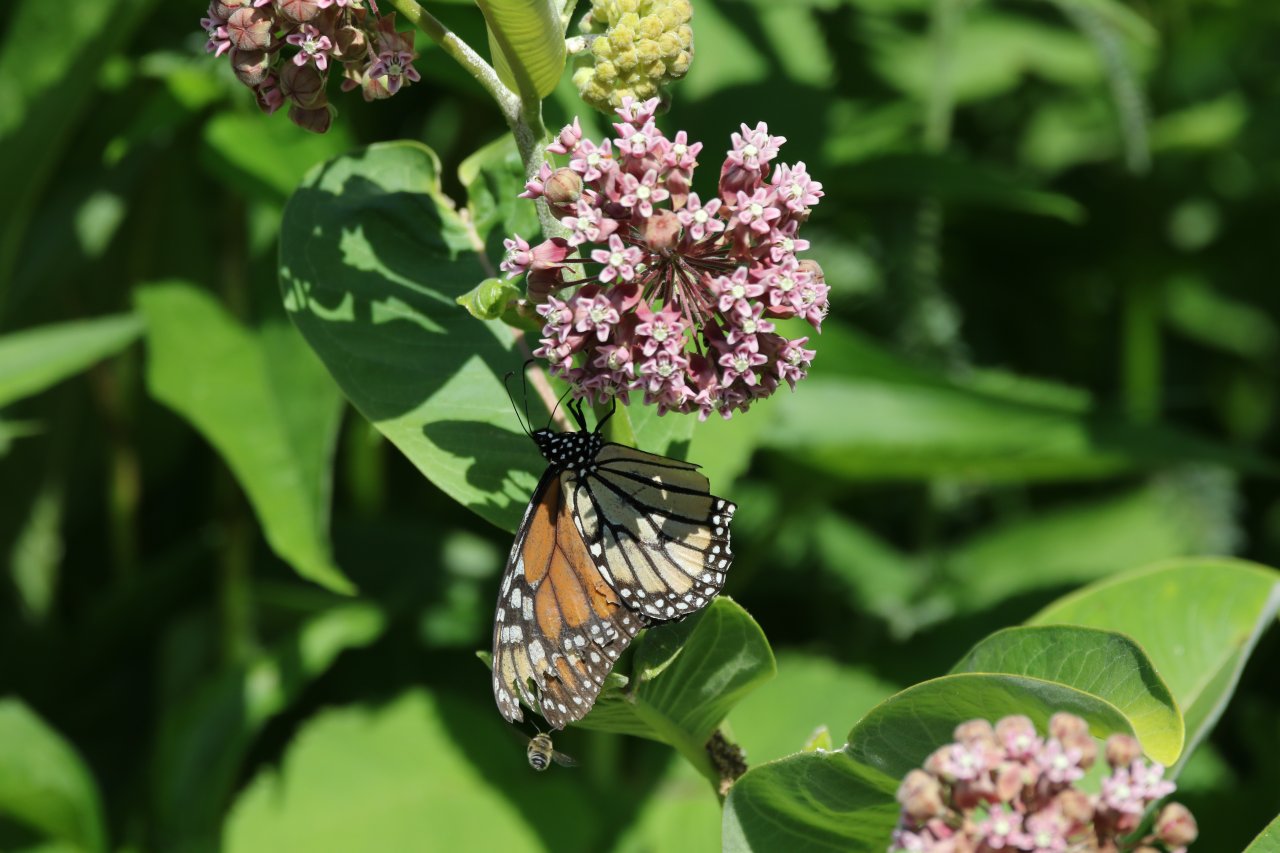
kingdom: Animalia
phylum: Arthropoda
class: Insecta
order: Lepidoptera
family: Nymphalidae
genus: Danaus
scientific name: Danaus plexippus
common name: Monarch
